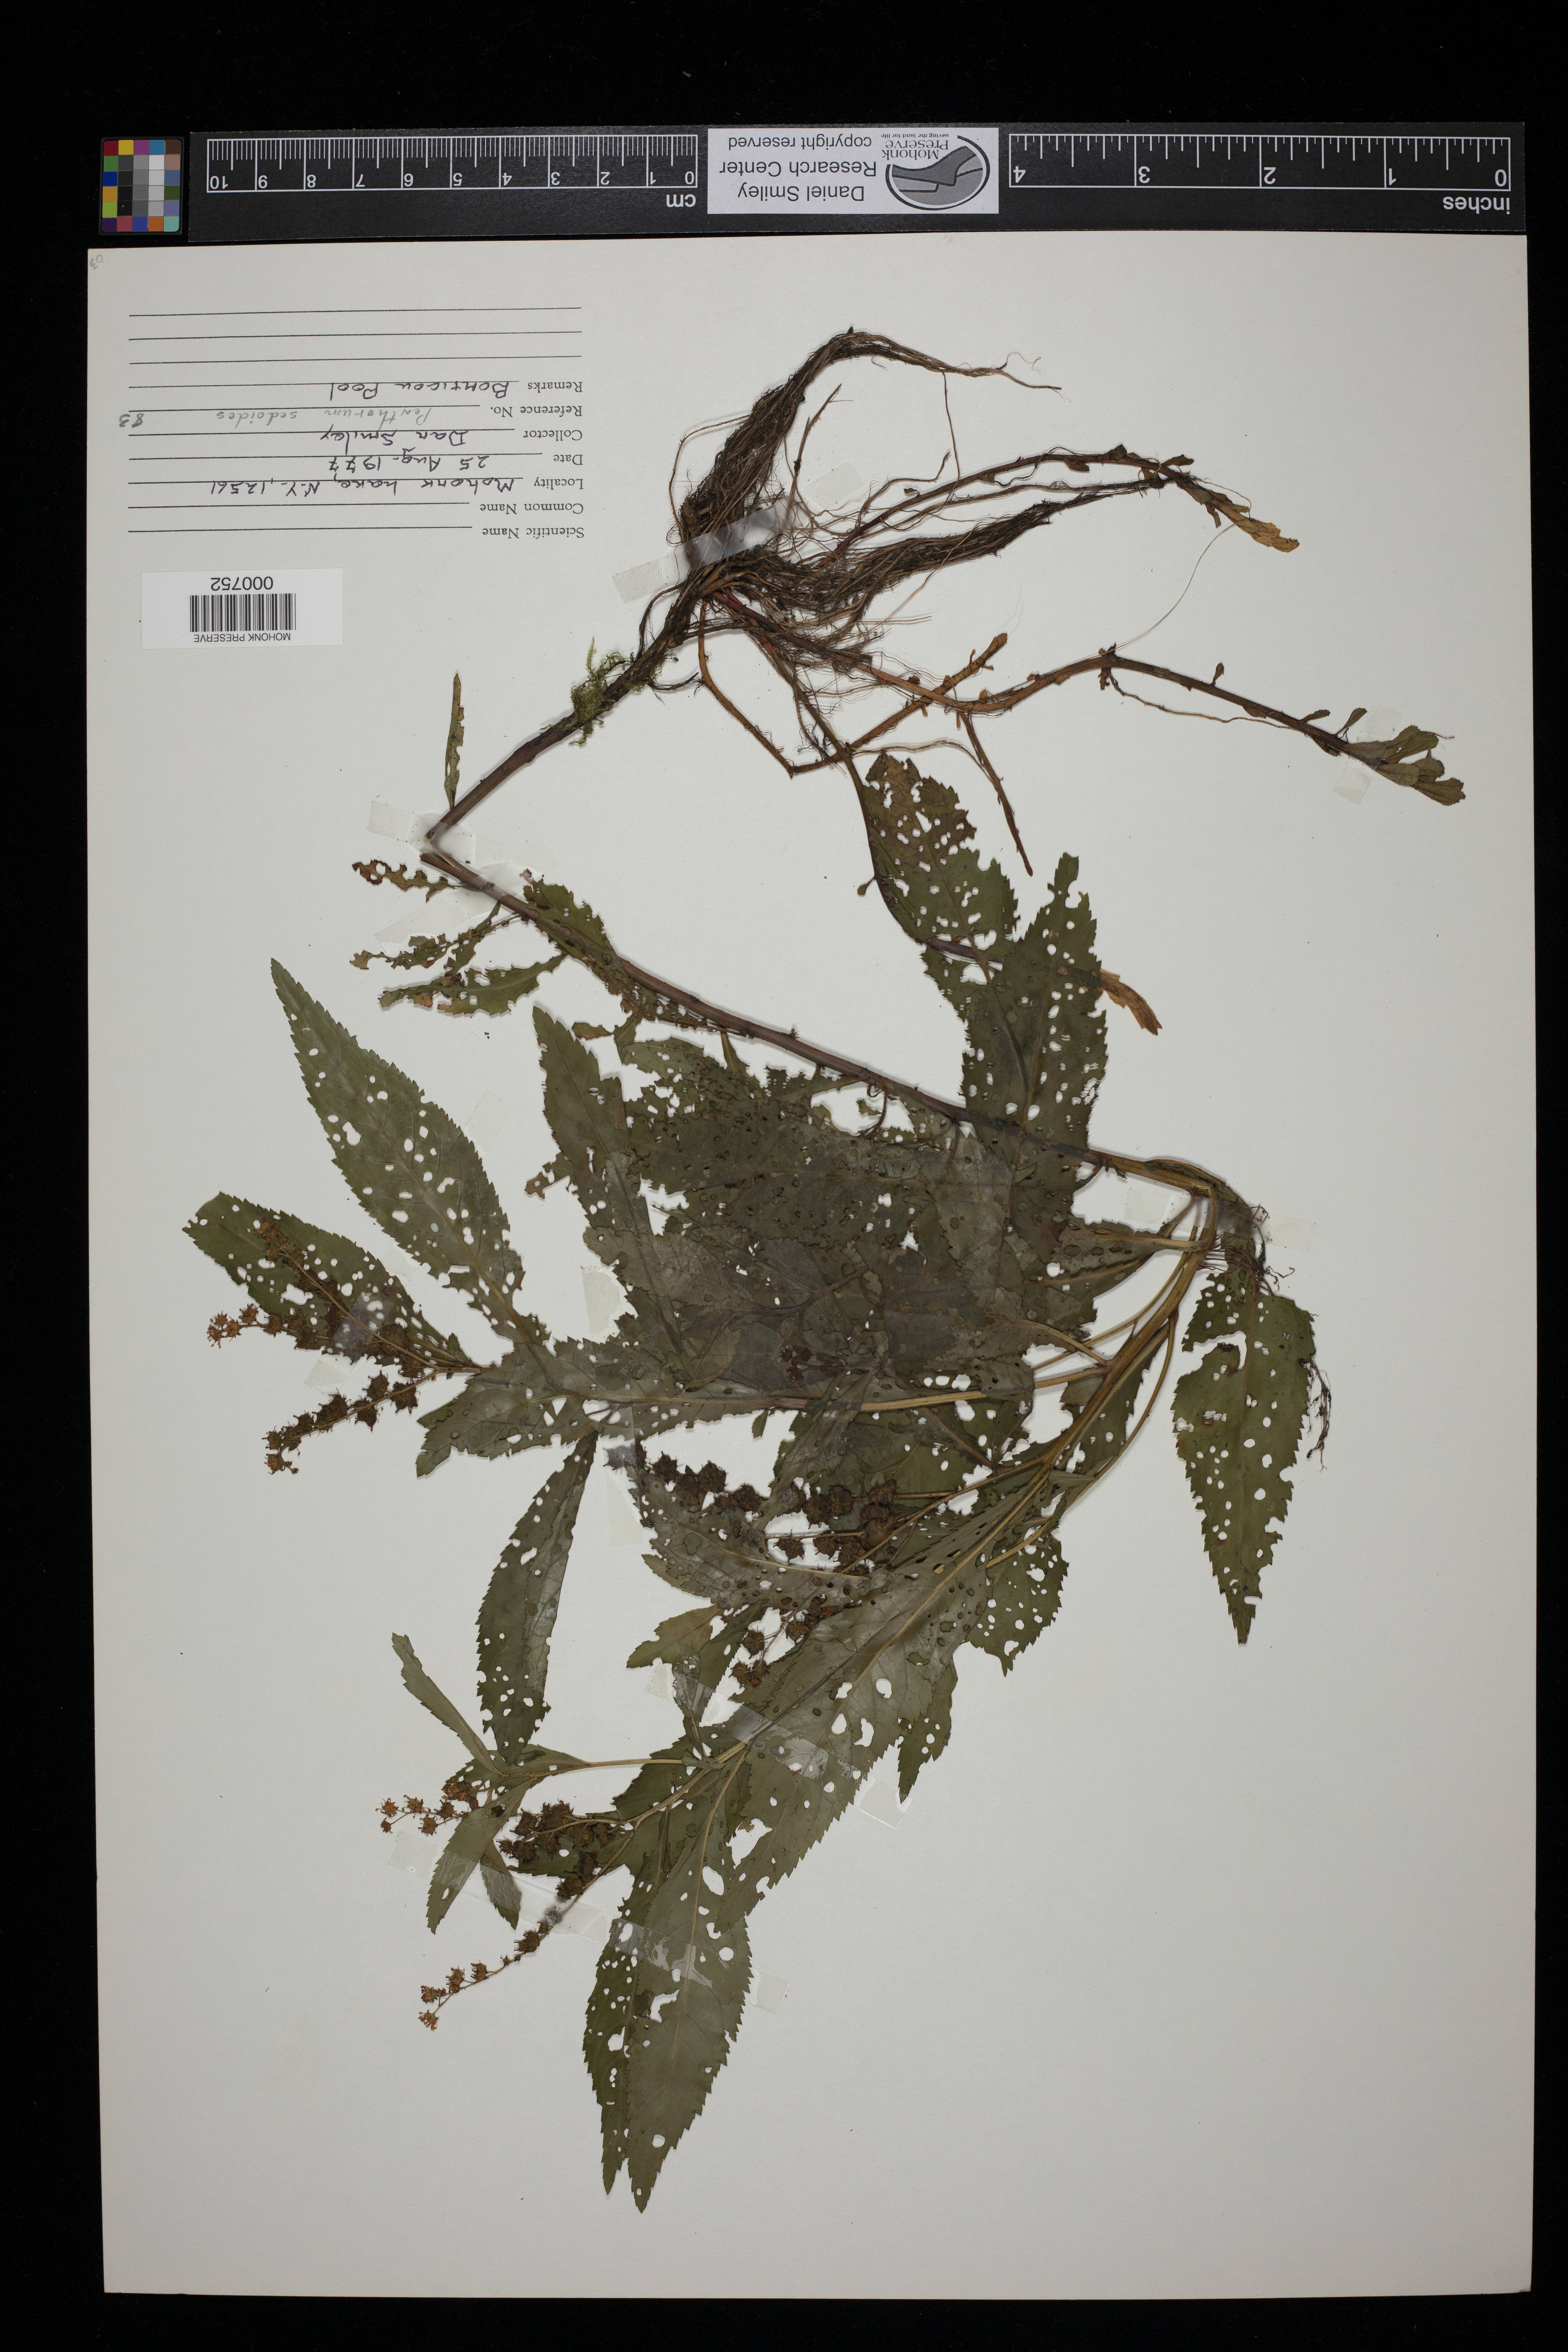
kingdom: Plantae
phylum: Tracheophyta
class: Magnoliopsida
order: Saxifragales
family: Penthoraceae
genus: Penthorum
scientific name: Penthorum sedoides
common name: Ditch stonecrop
